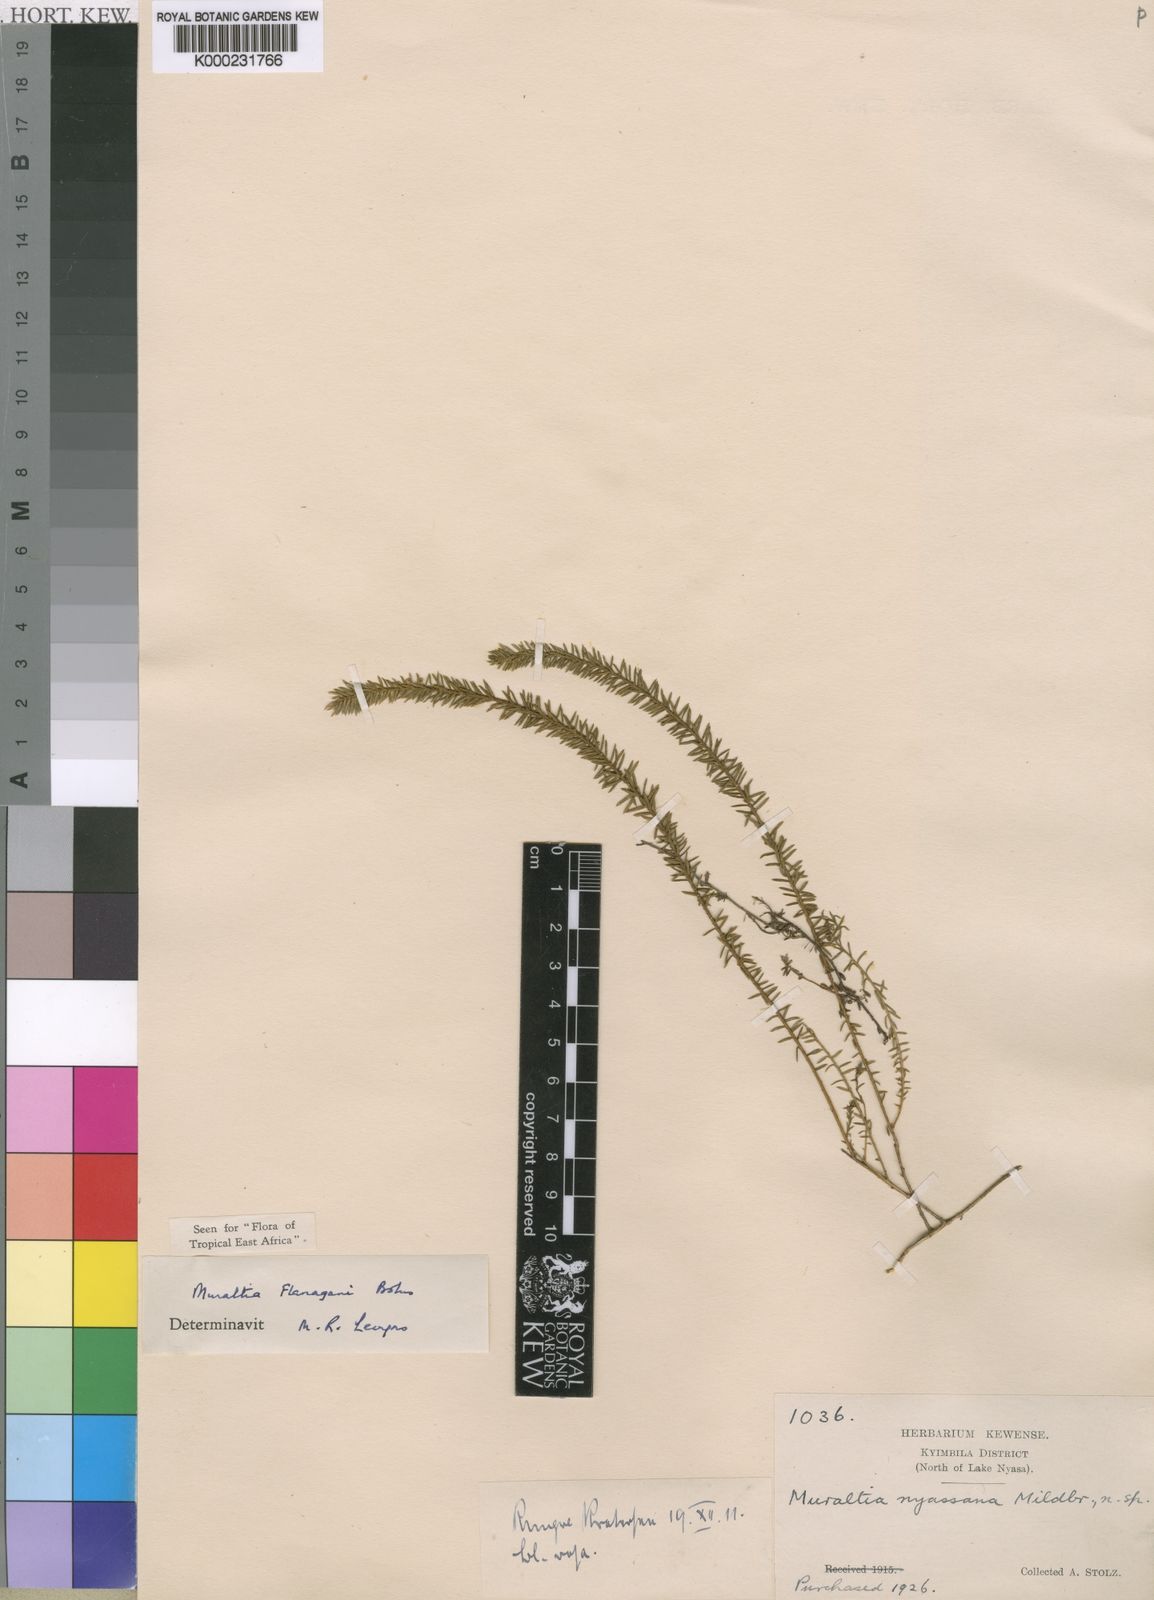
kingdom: Plantae
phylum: Tracheophyta
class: Magnoliopsida
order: Fabales
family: Polygalaceae
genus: Muraltia
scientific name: Muraltia flanaganii
